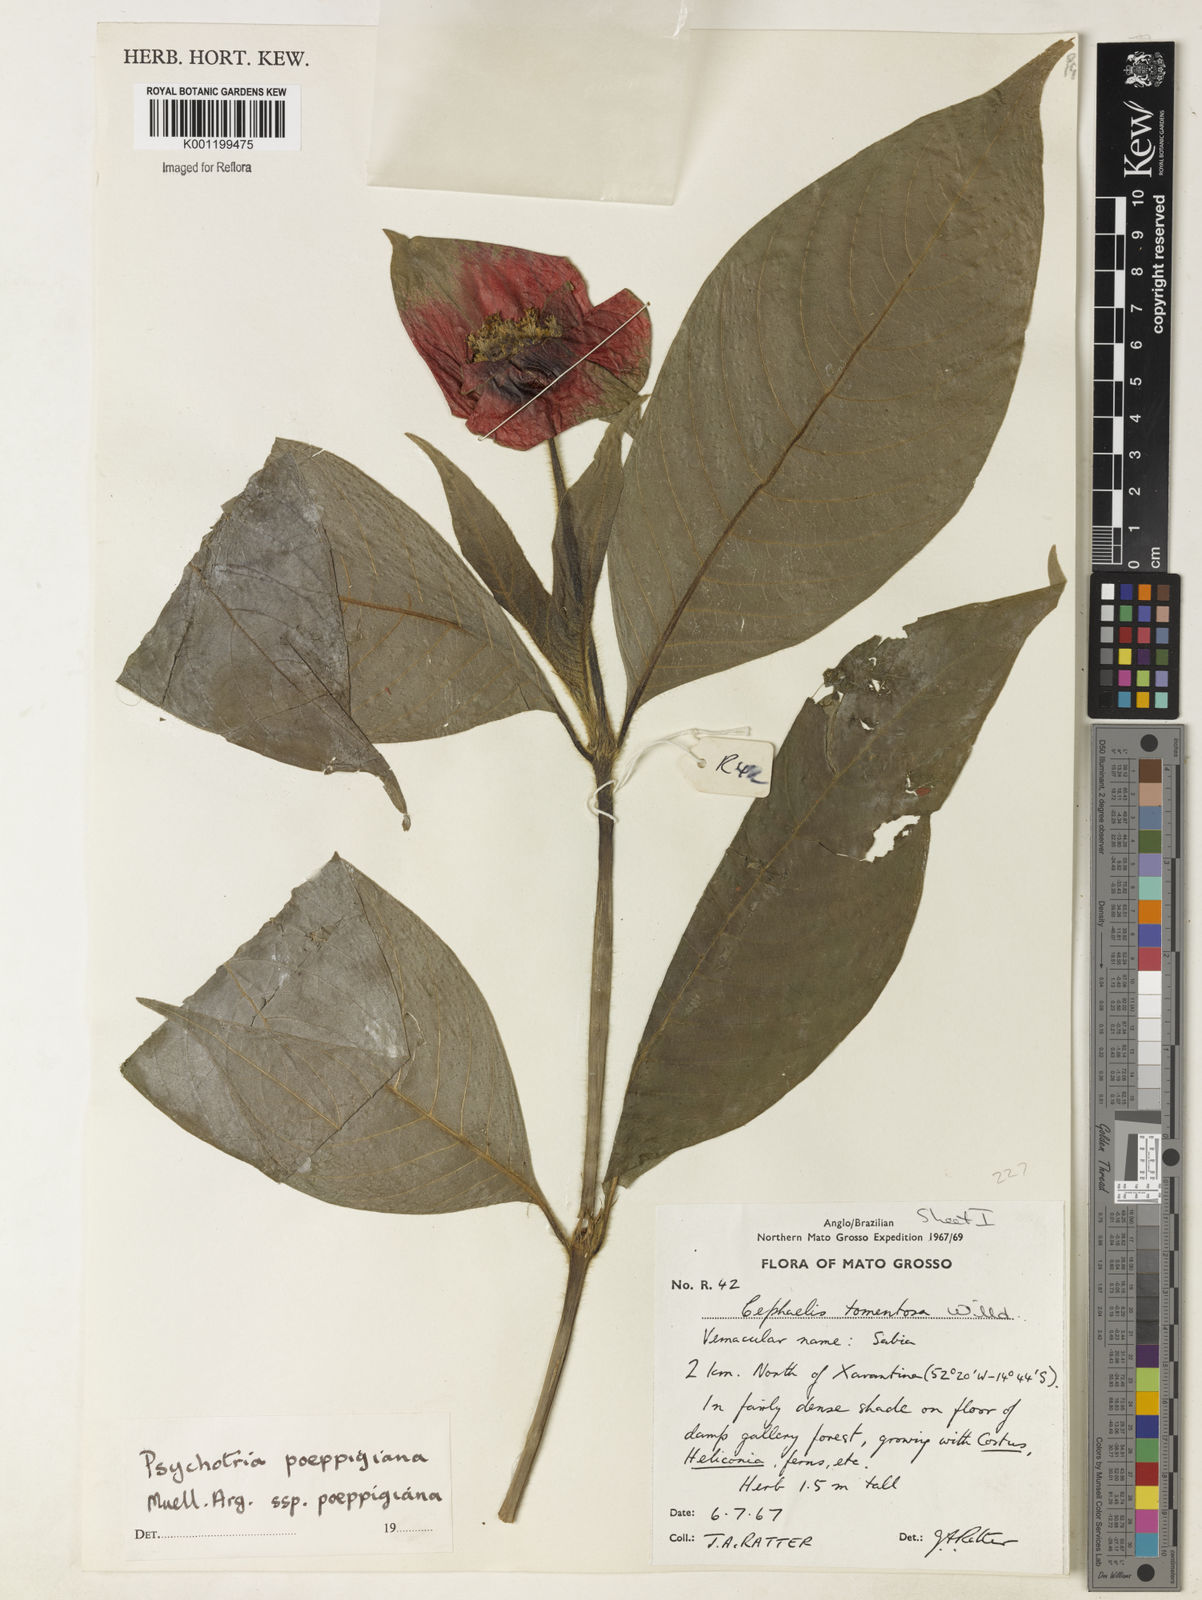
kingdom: Plantae
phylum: Tracheophyta
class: Magnoliopsida
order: Gentianales
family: Rubiaceae
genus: Psychotria
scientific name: Psychotria
